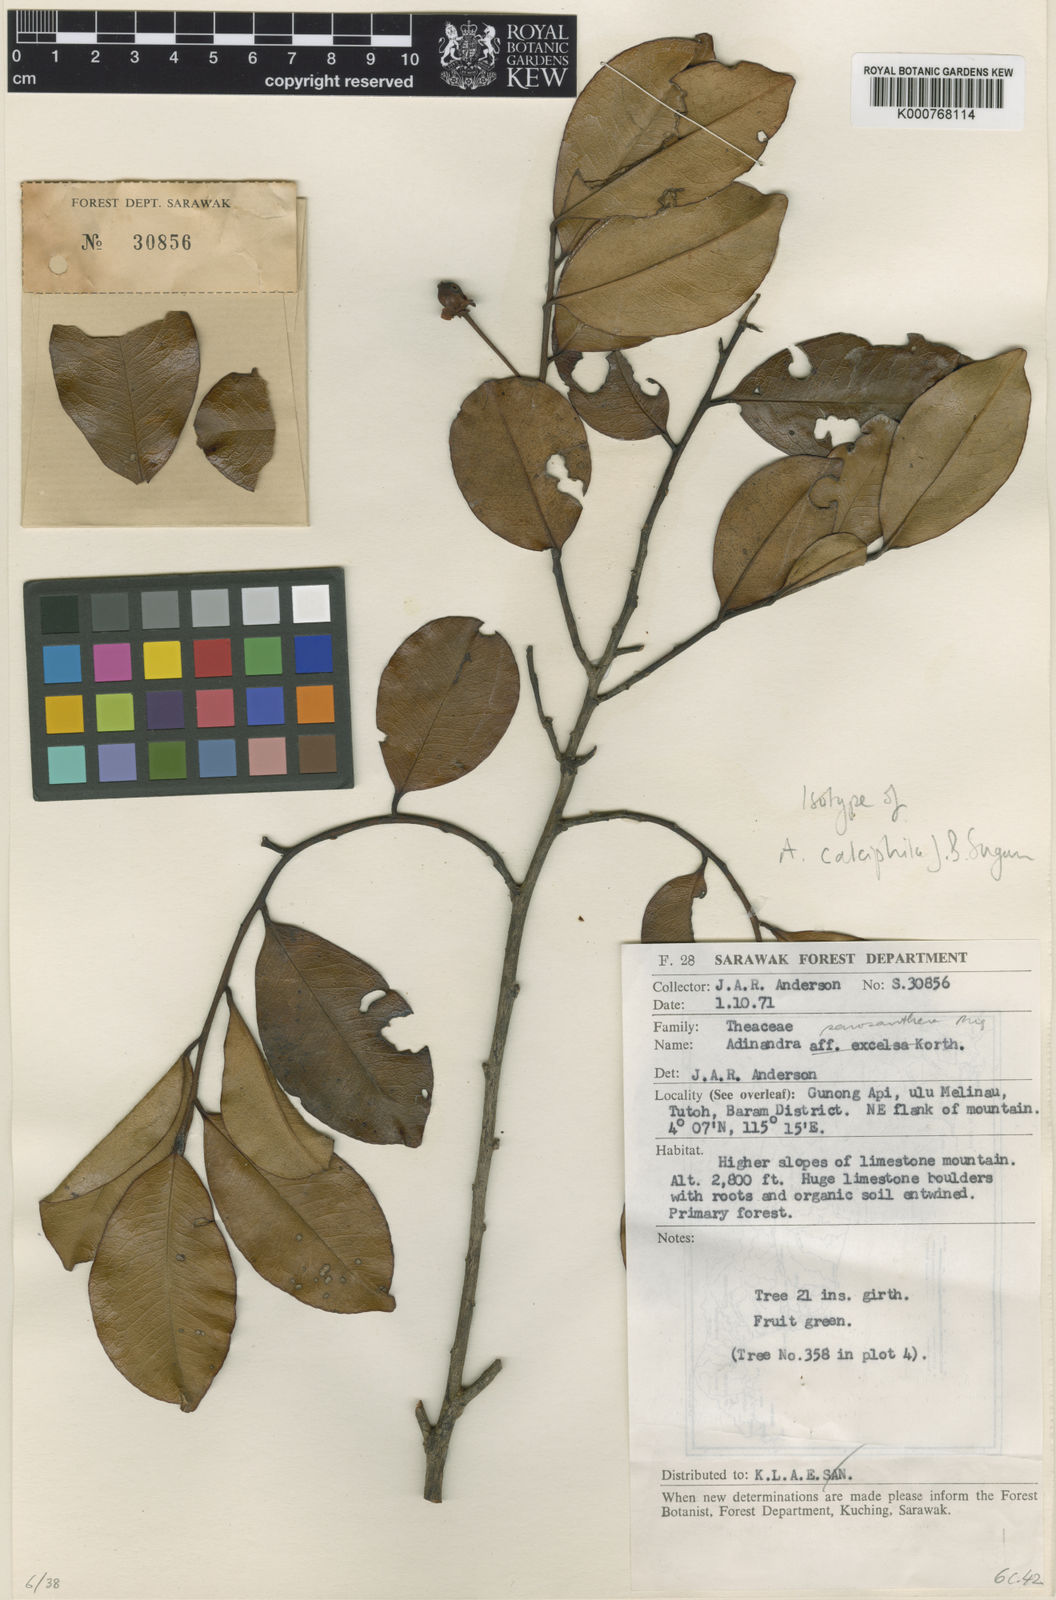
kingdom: Plantae
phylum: Tracheophyta
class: Magnoliopsida
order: Ericales
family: Pentaphylacaceae
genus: Adinandra
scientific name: Adinandra sarosanthera
